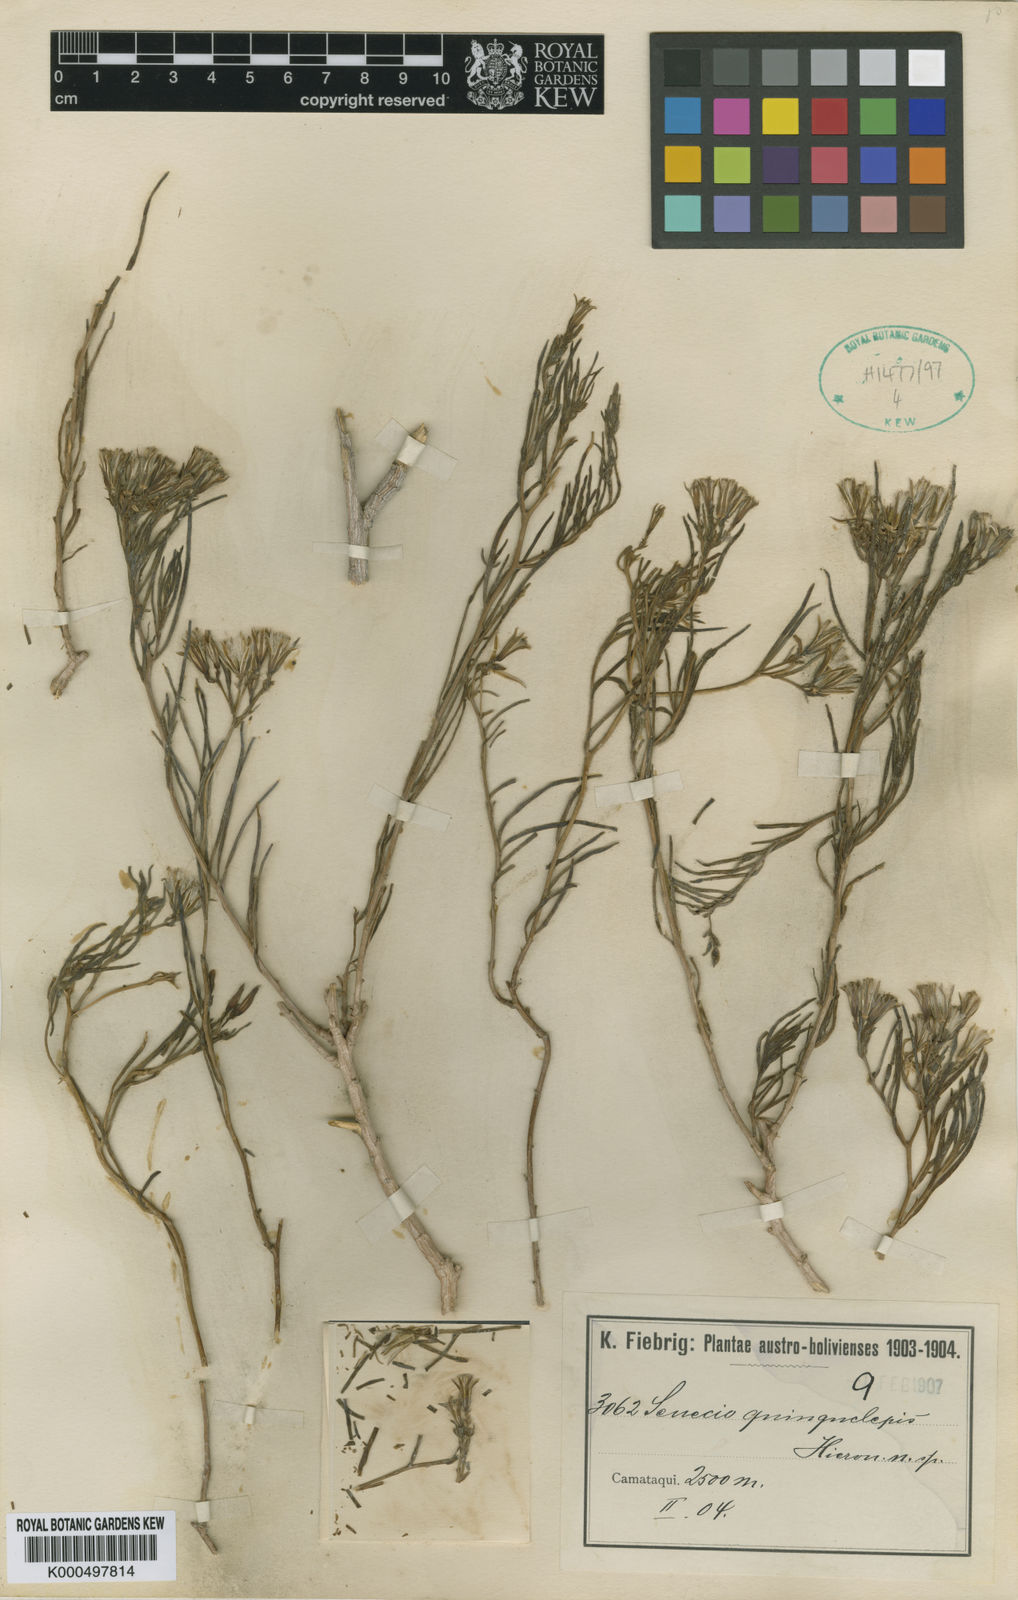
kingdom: Plantae
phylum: Tracheophyta
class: Magnoliopsida
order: Asterales
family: Asteraceae
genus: Senecio
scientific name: Senecio quinquelepis
